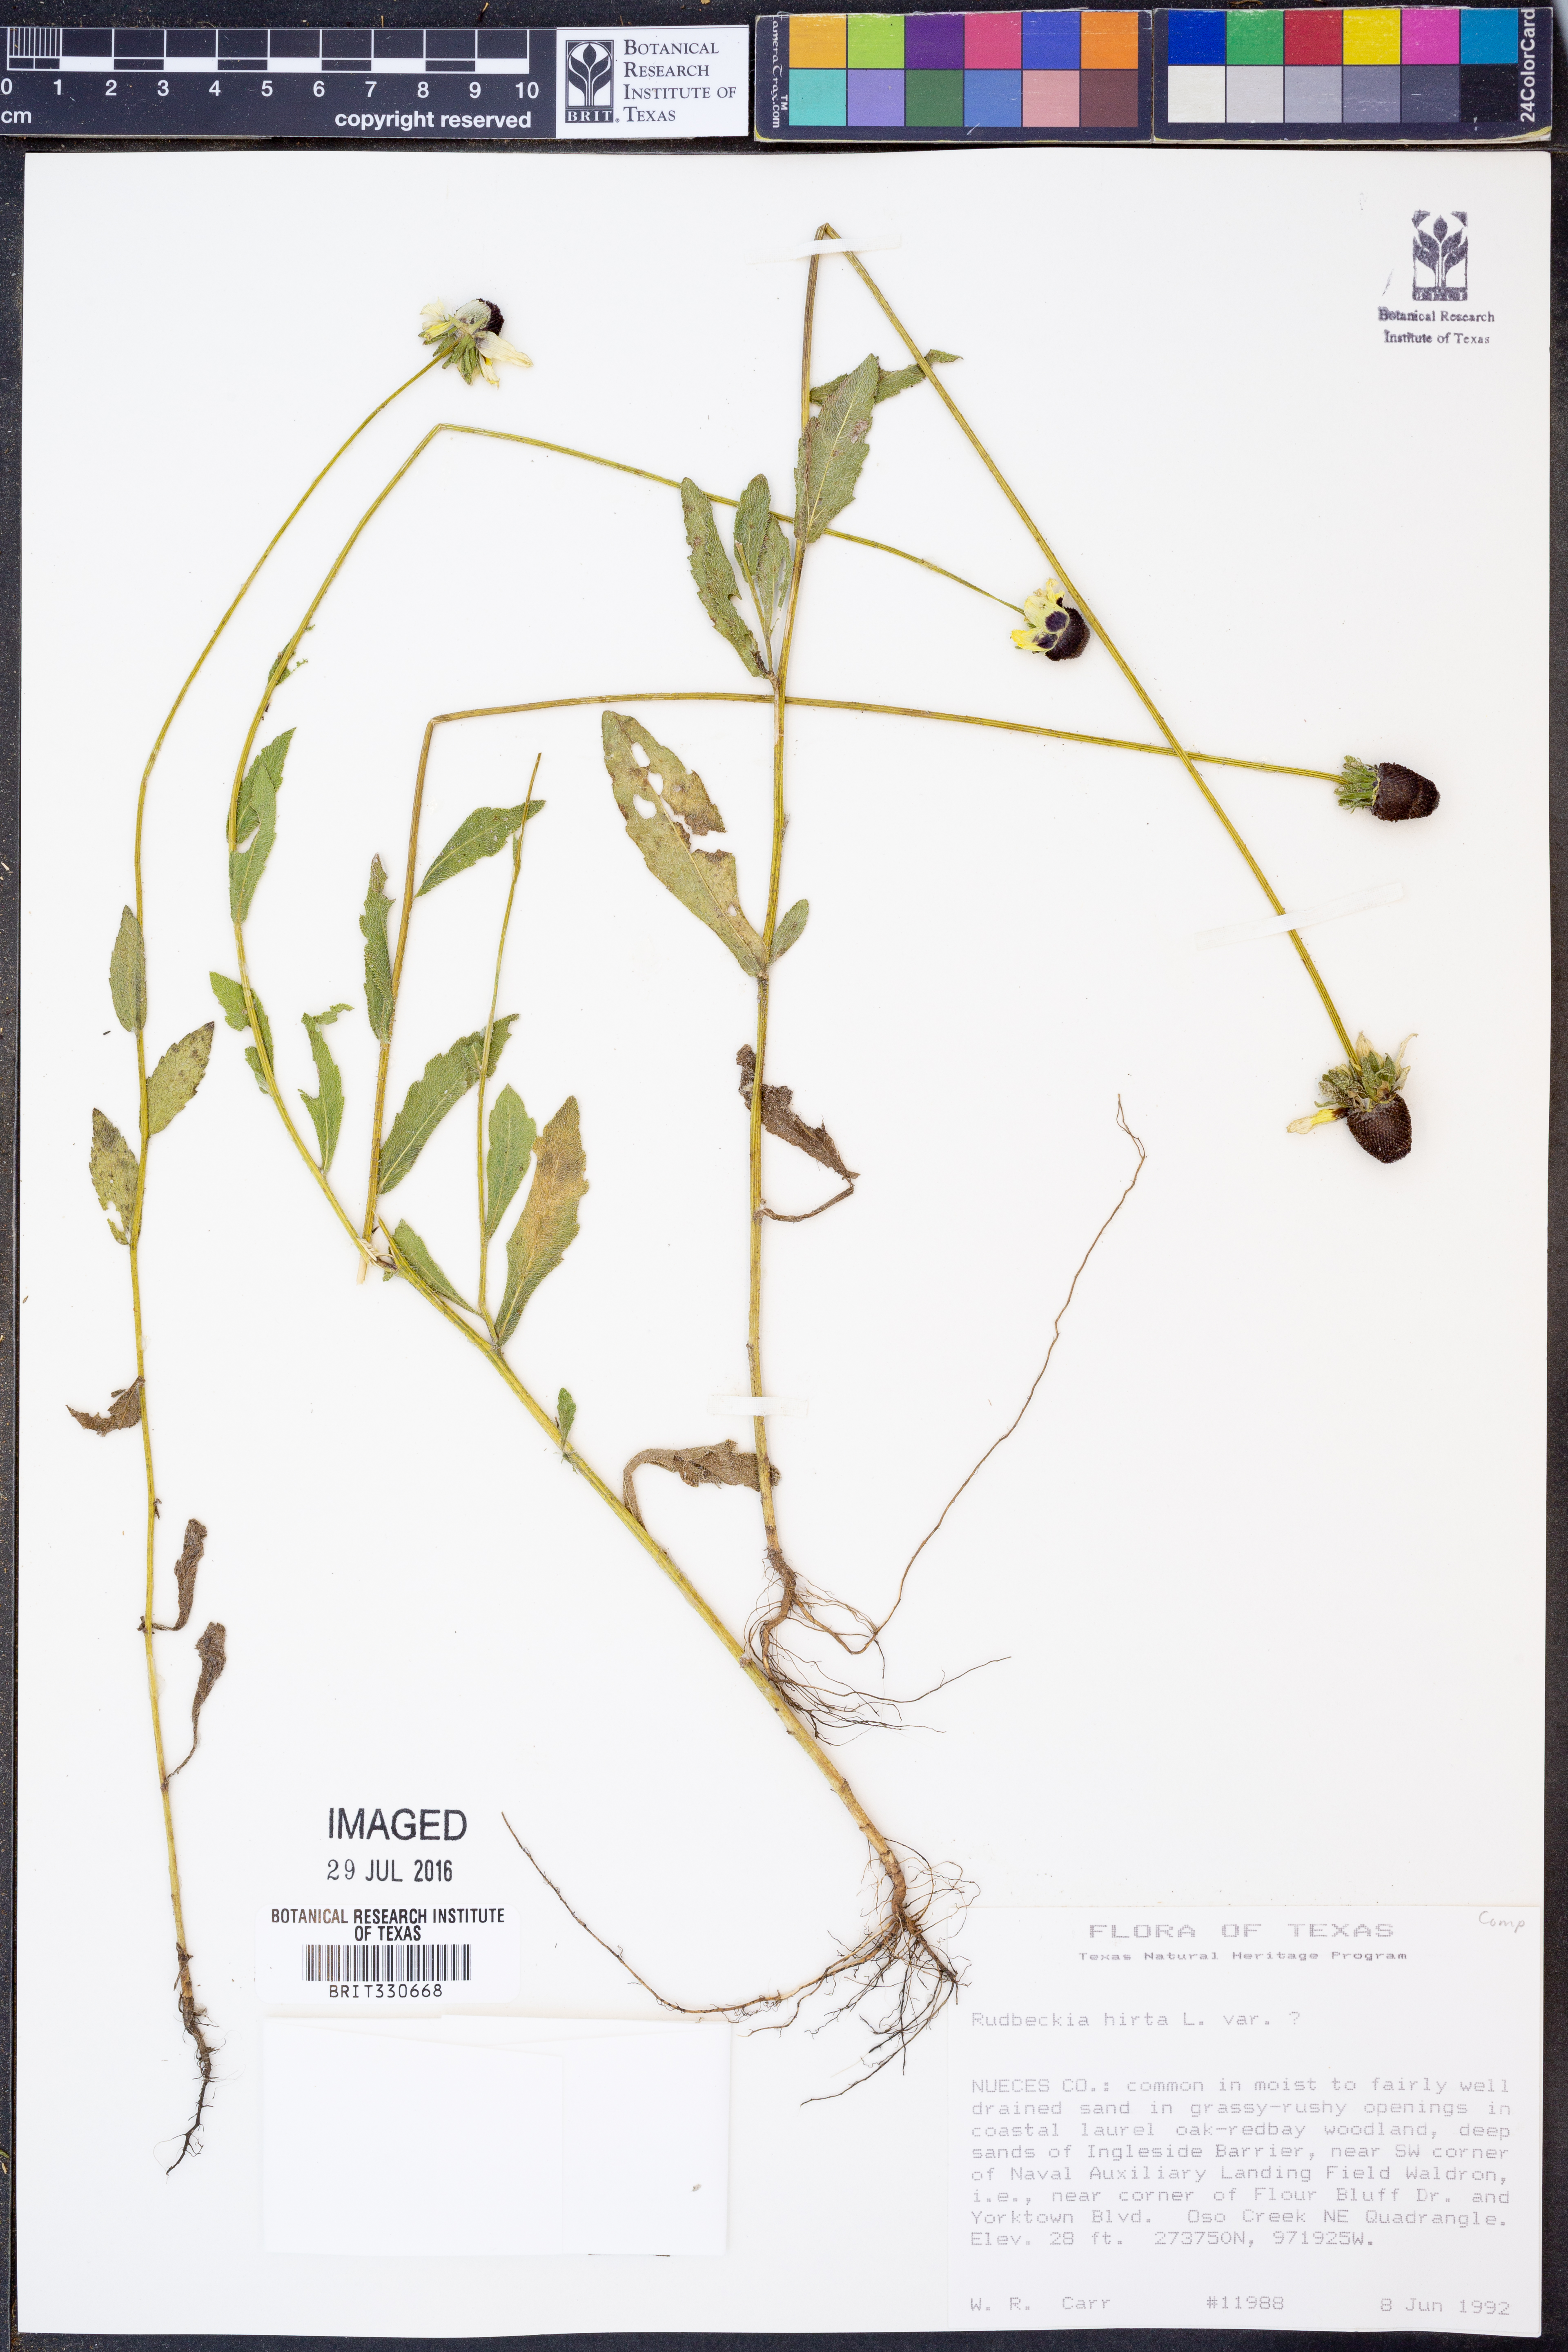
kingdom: Plantae
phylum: Tracheophyta
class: Magnoliopsida
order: Asterales
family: Asteraceae
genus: Rudbeckia
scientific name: Rudbeckia hirta
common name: Black-eyed-susan
